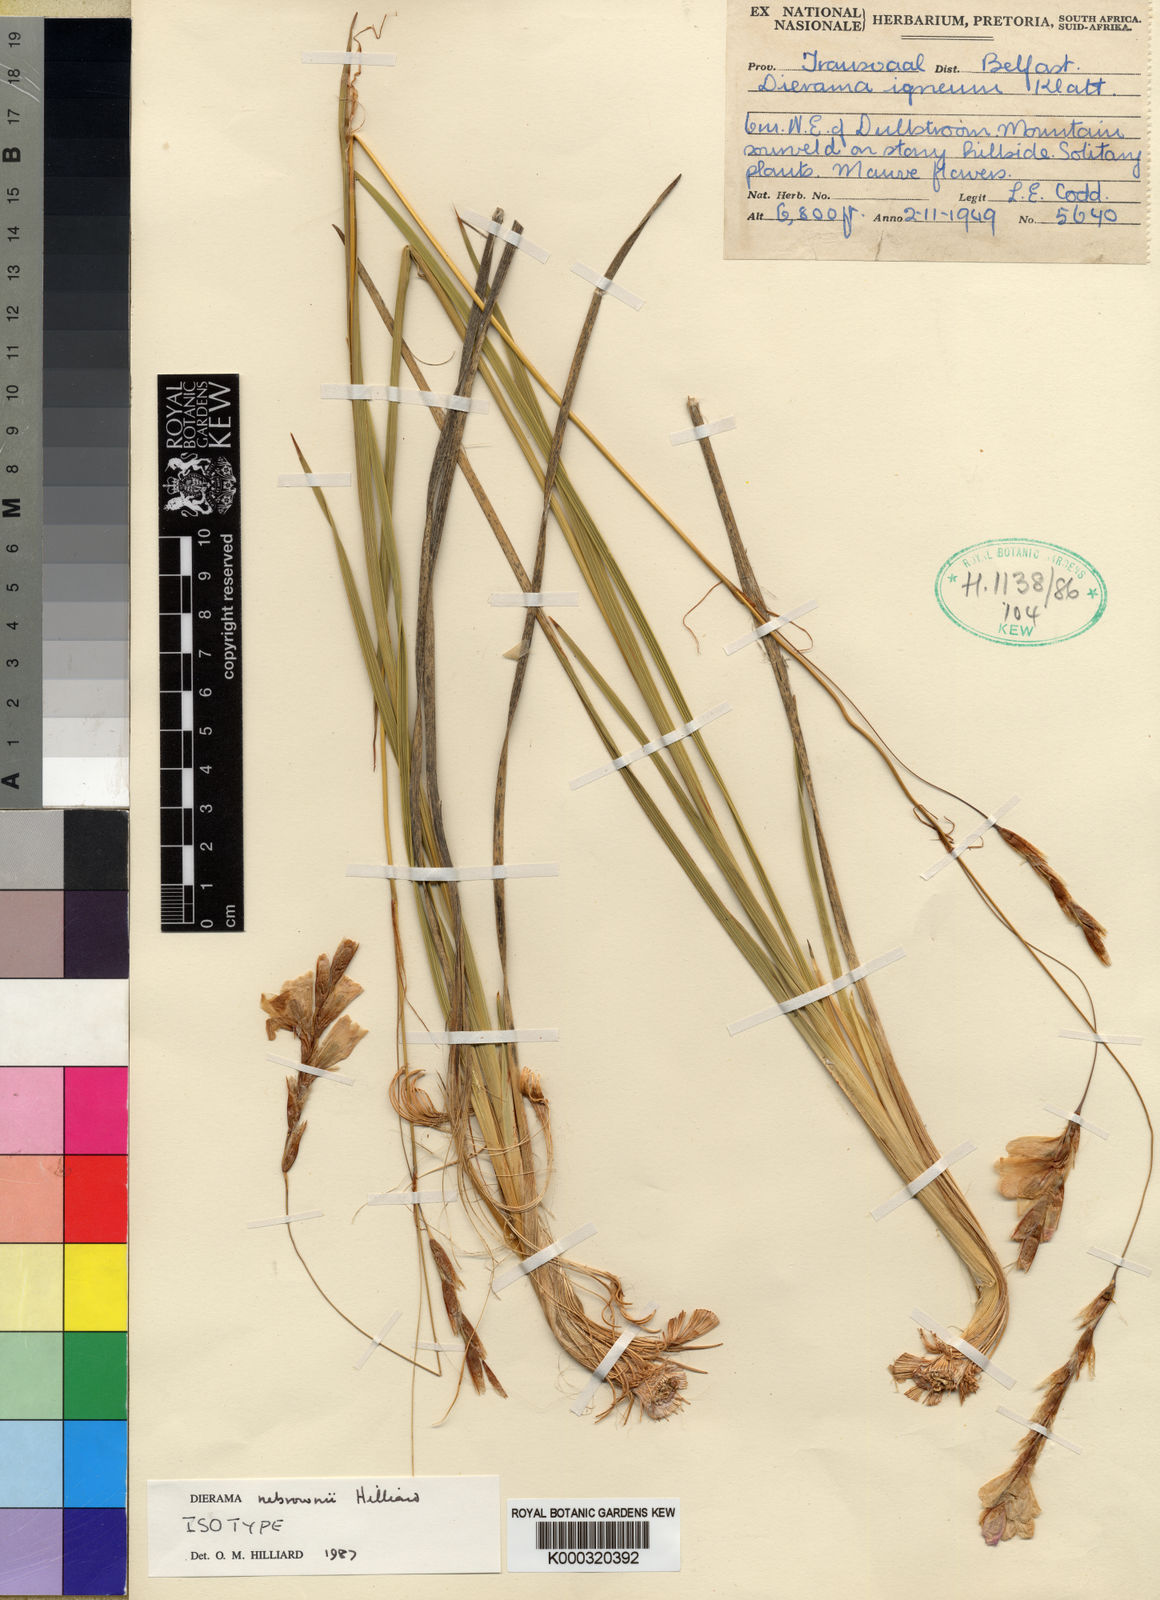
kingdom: Plantae
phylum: Tracheophyta
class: Liliopsida
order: Asparagales
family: Iridaceae
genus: Dierama
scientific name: Dierama nebrownii
